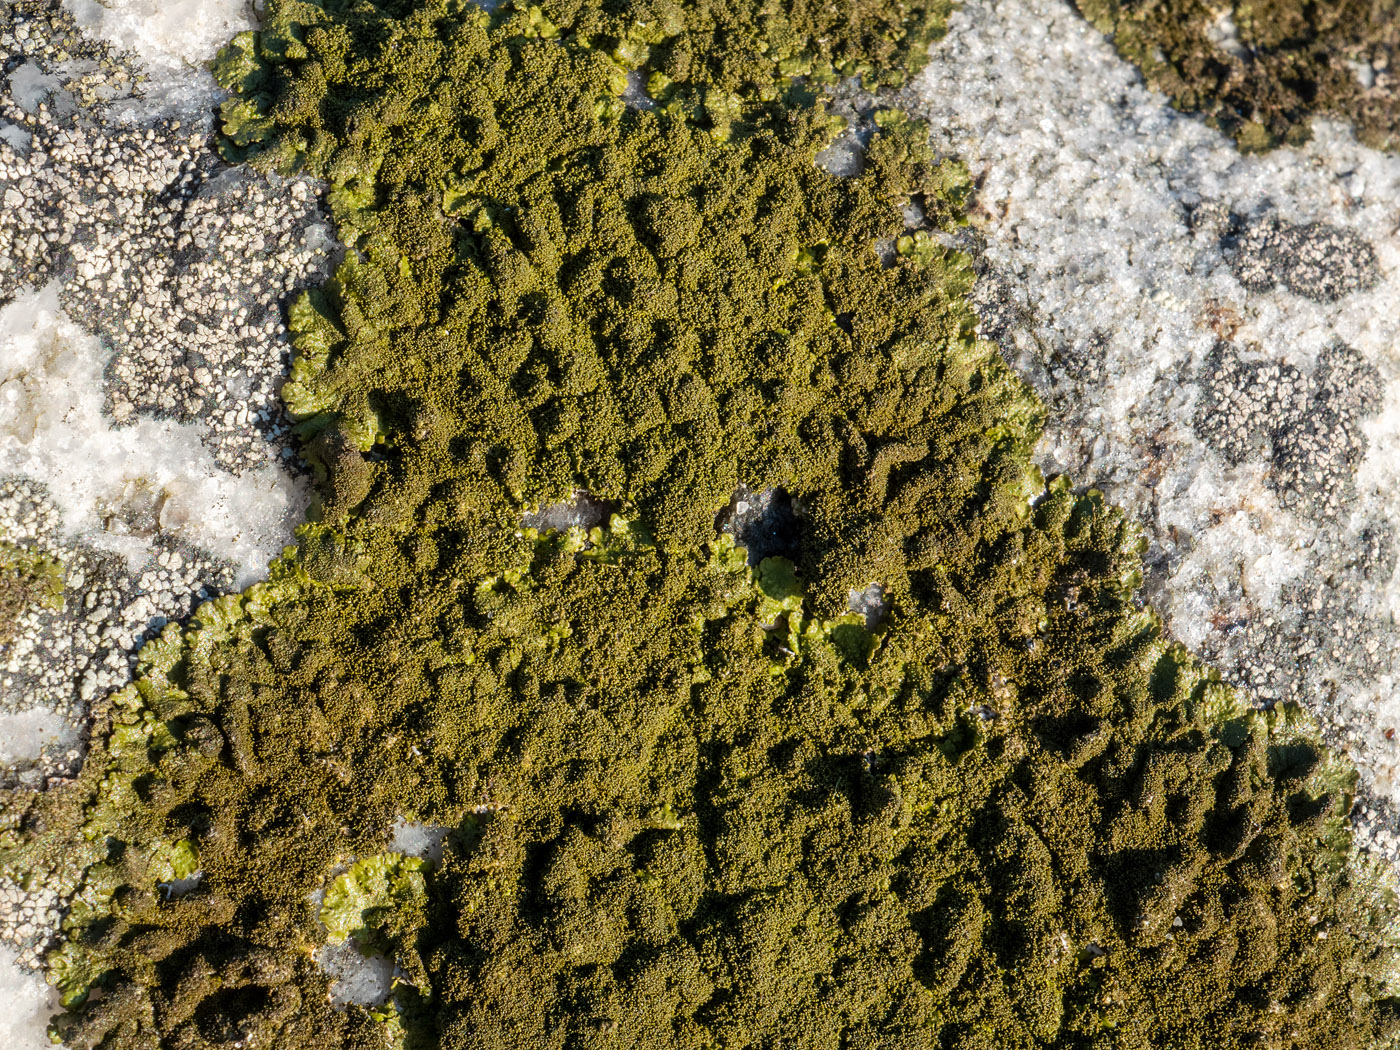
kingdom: Fungi
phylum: Ascomycota
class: Lecanoromycetes
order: Lecanorales
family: Parmeliaceae
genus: Xanthoparmelia
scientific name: Xanthoparmelia verruculifera
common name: småknoppet skållav
